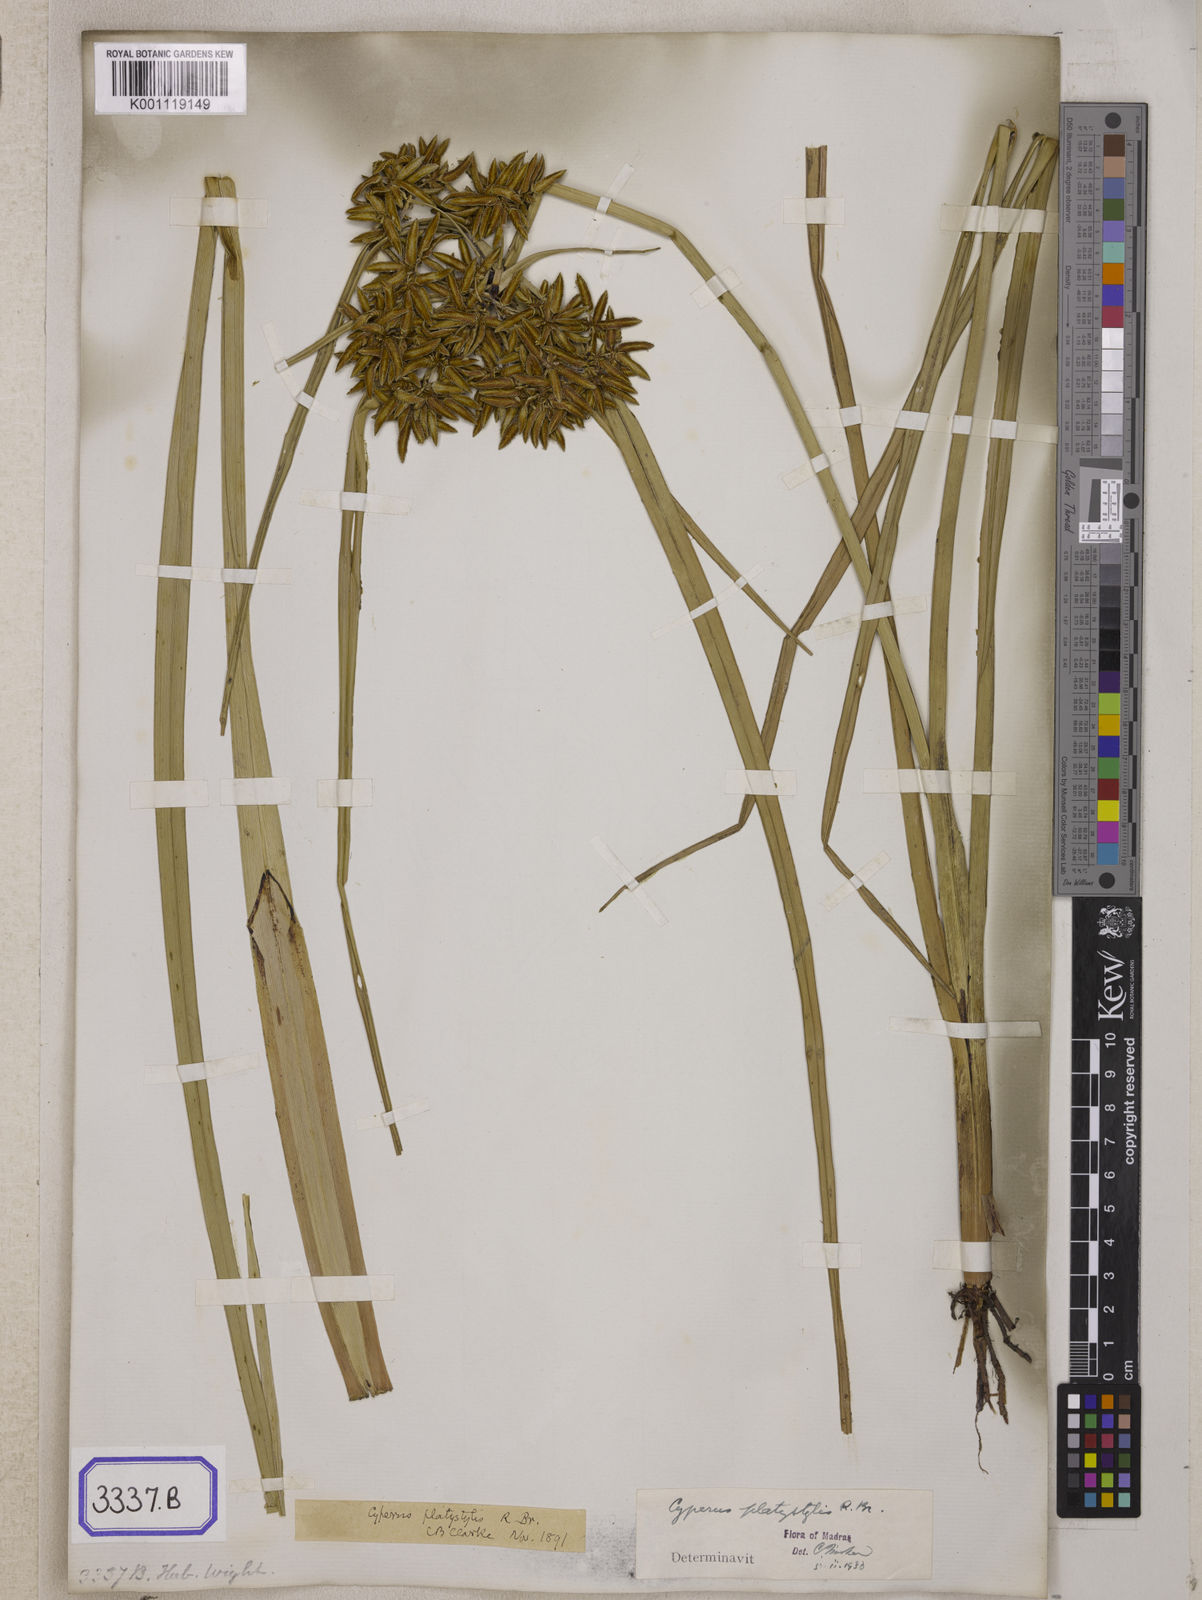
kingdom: Plantae
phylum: Tracheophyta
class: Liliopsida
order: Poales
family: Cyperaceae
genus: Cyperus
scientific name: Cyperus
